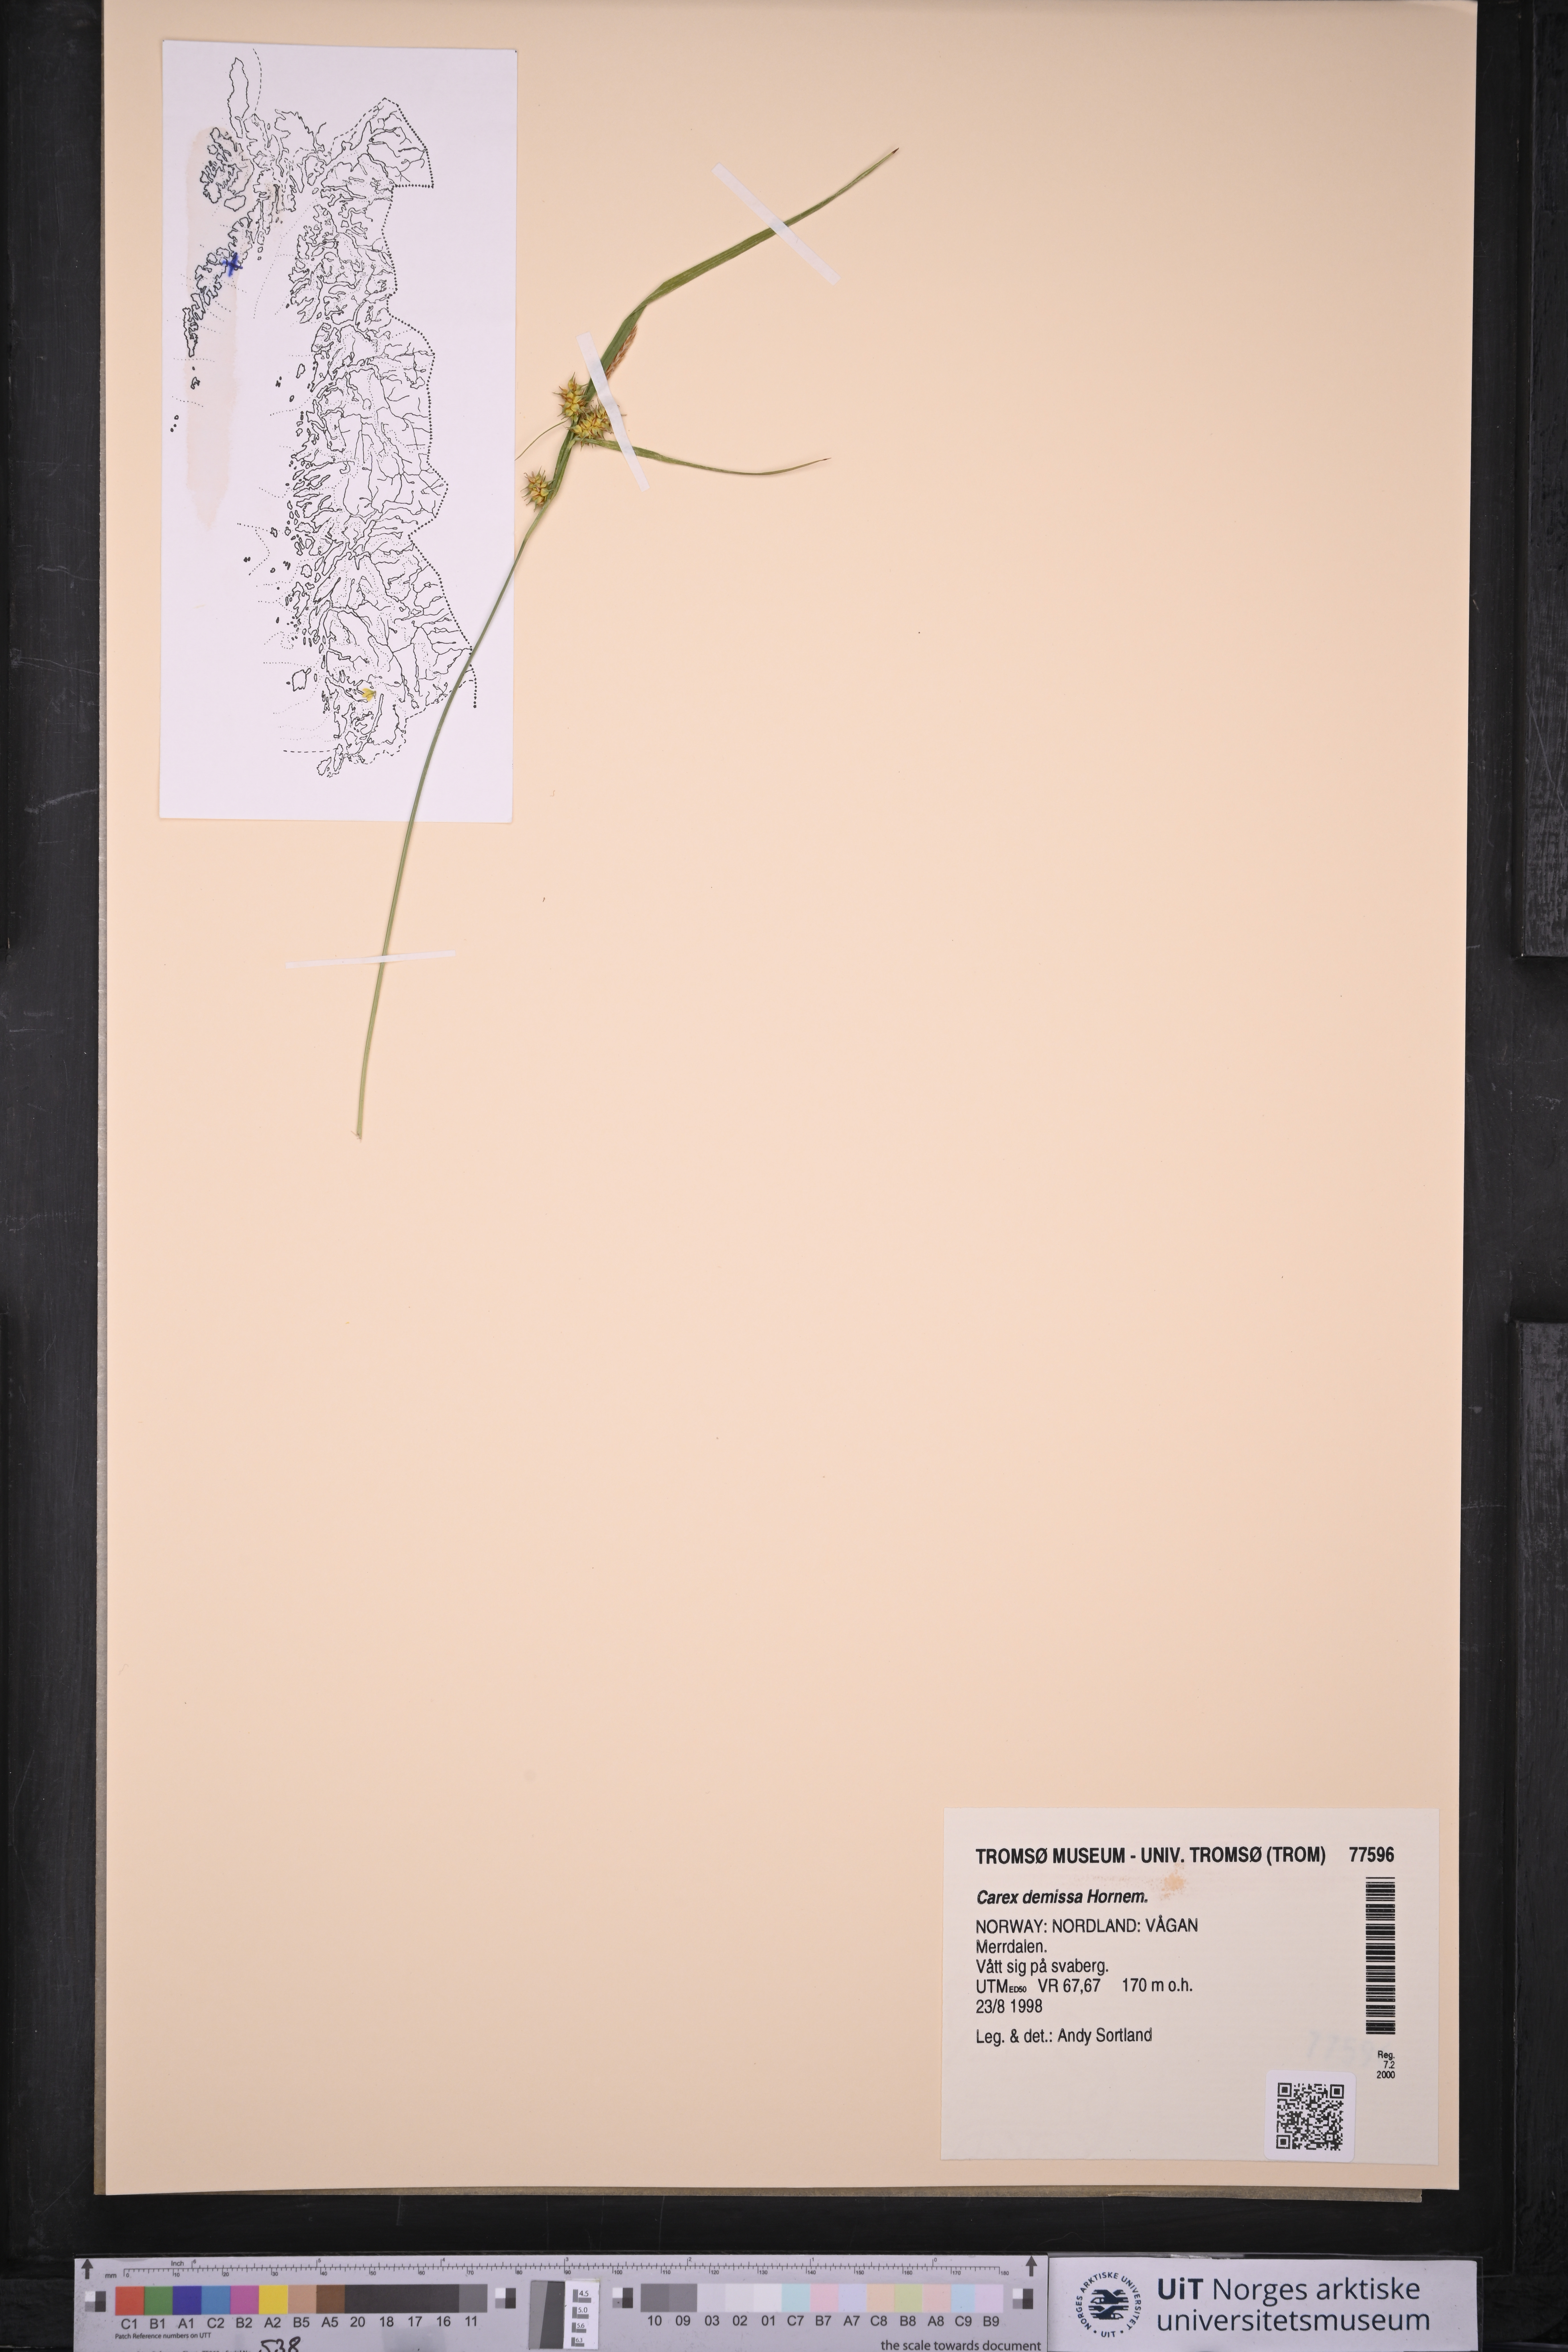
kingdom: Plantae
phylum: Tracheophyta
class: Liliopsida
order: Poales
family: Cyperaceae
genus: Carex
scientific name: Carex demissa
